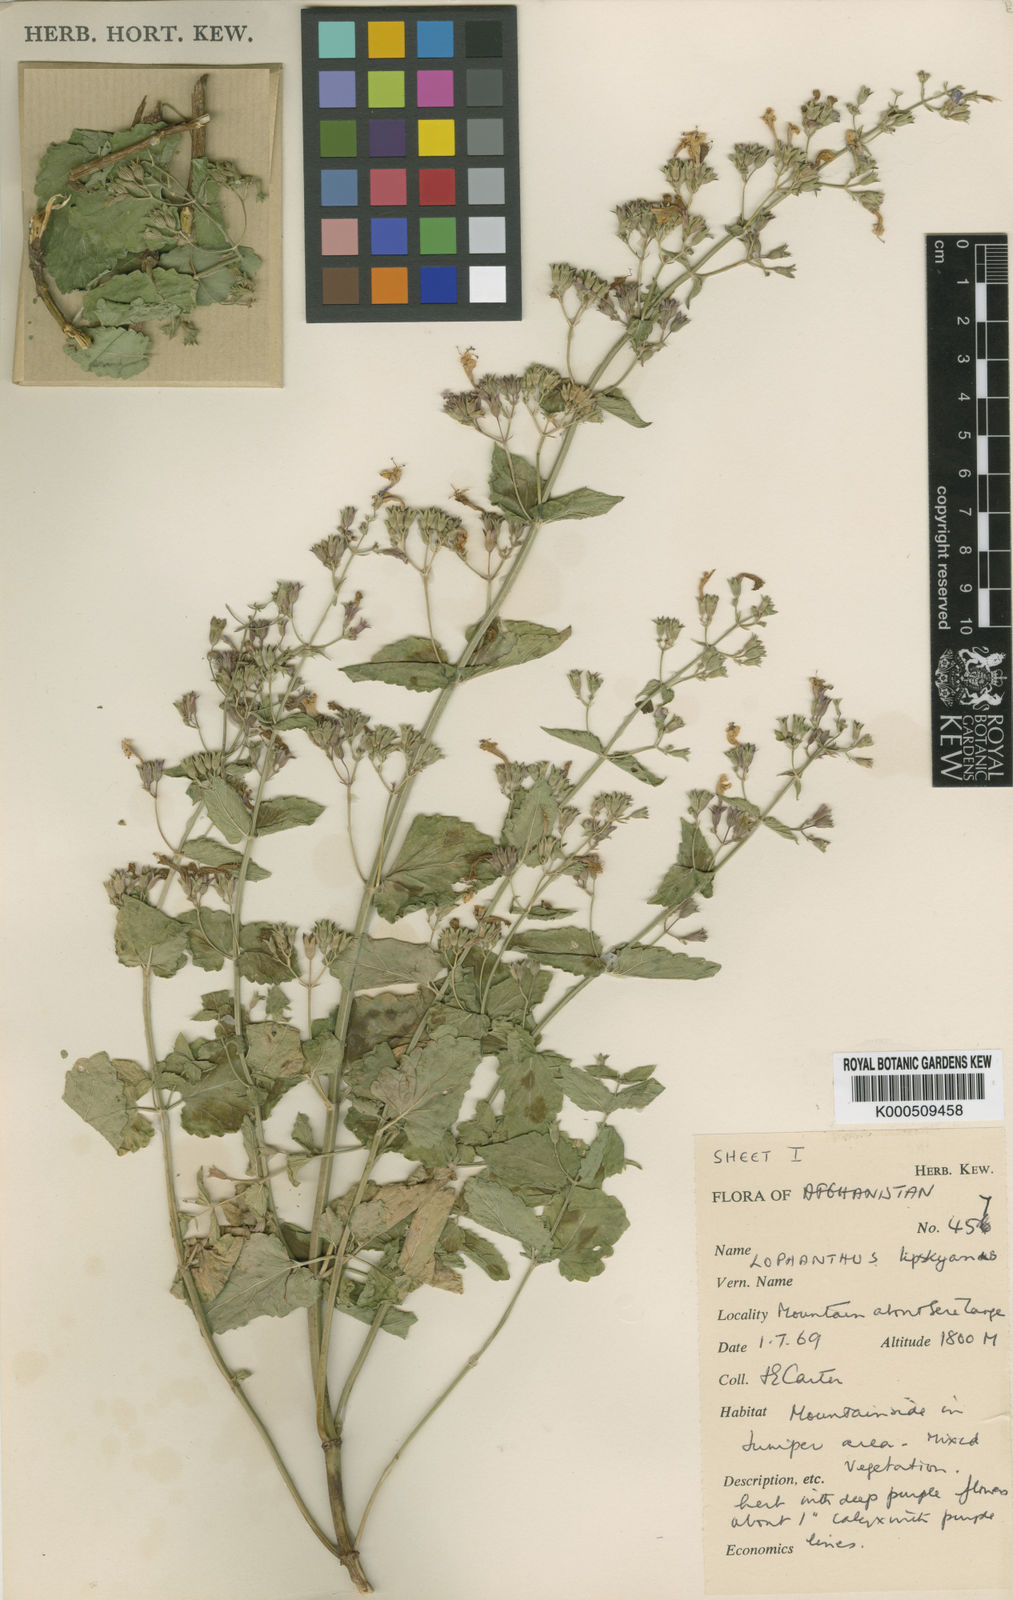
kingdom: Plantae
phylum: Tracheophyta
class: Magnoliopsida
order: Lamiales
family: Lamiaceae
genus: Nepeta
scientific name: Nepeta ouroumitanensis
